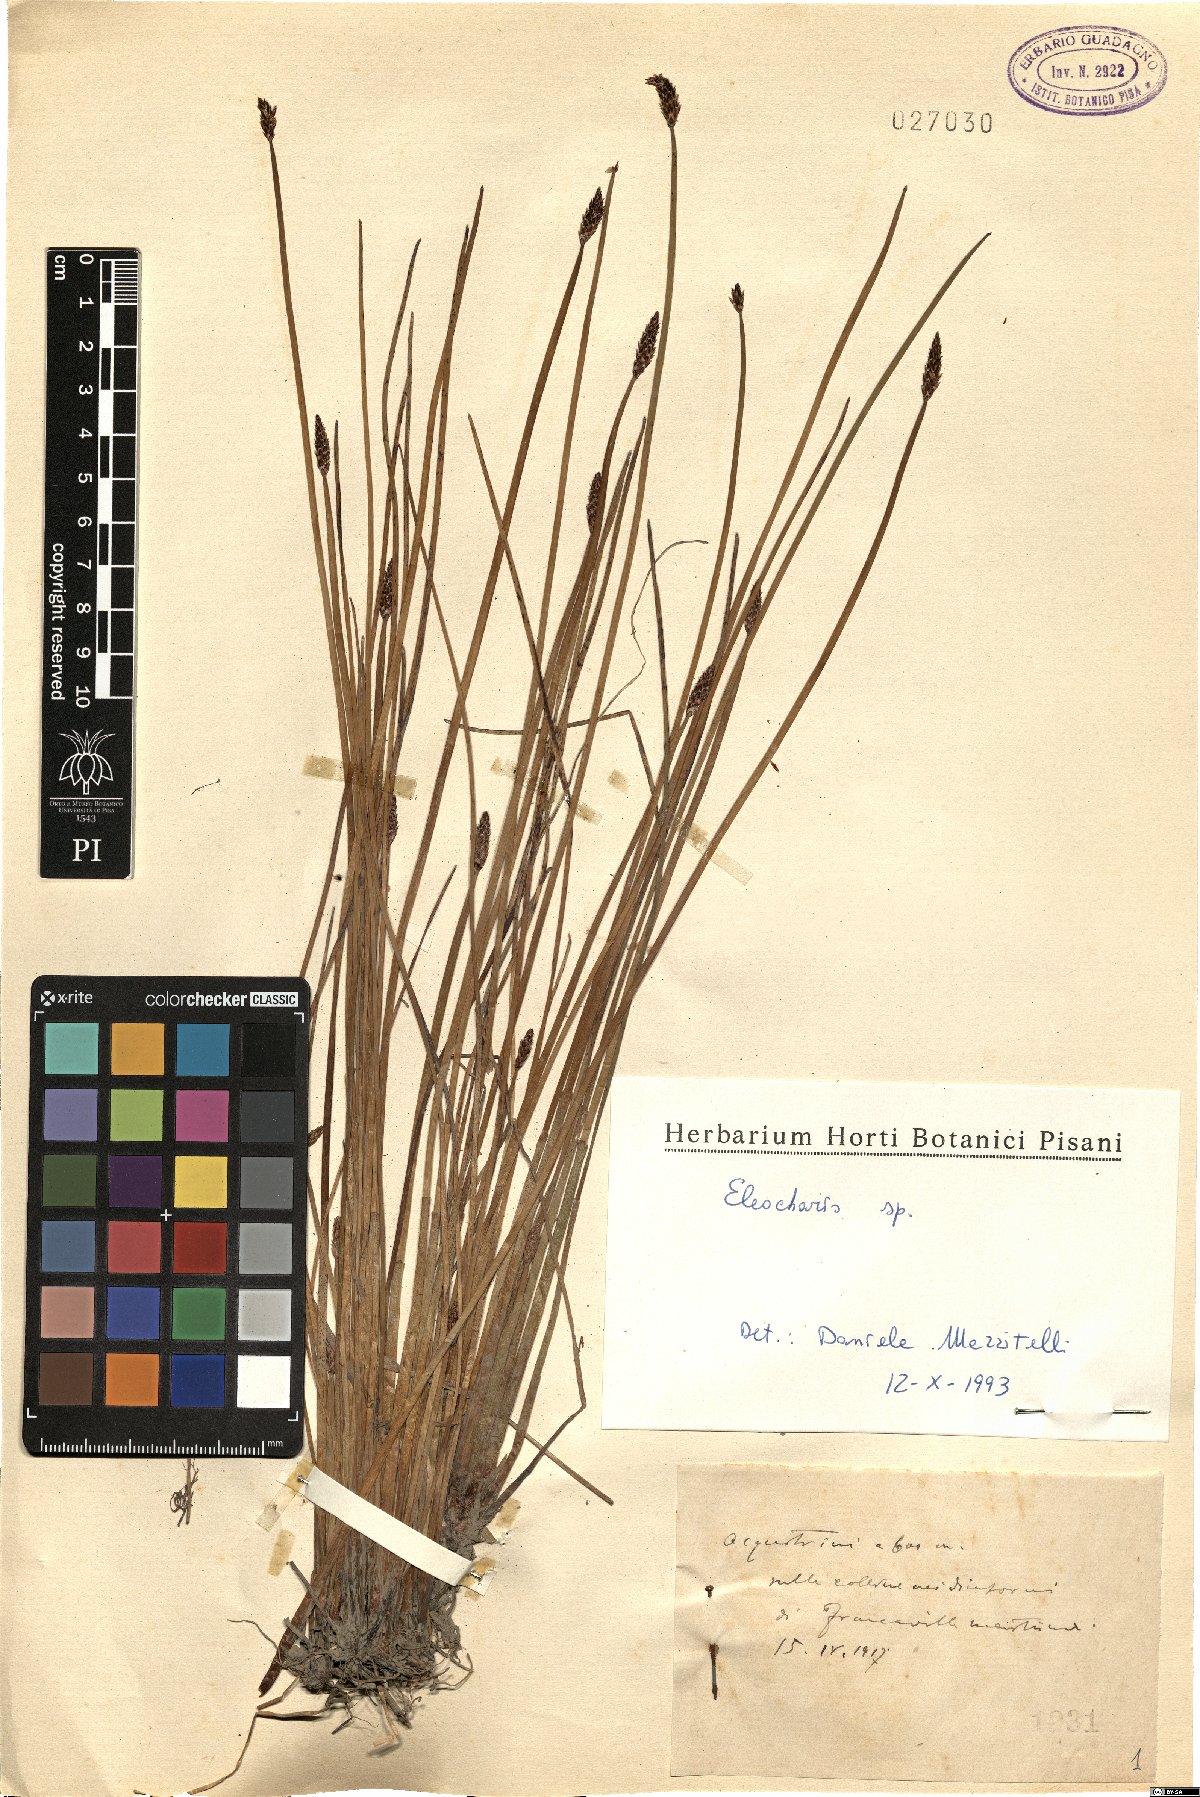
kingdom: Plantae
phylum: Tracheophyta
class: Liliopsida
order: Poales
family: Cyperaceae
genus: Eleocharis
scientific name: Eleocharis
